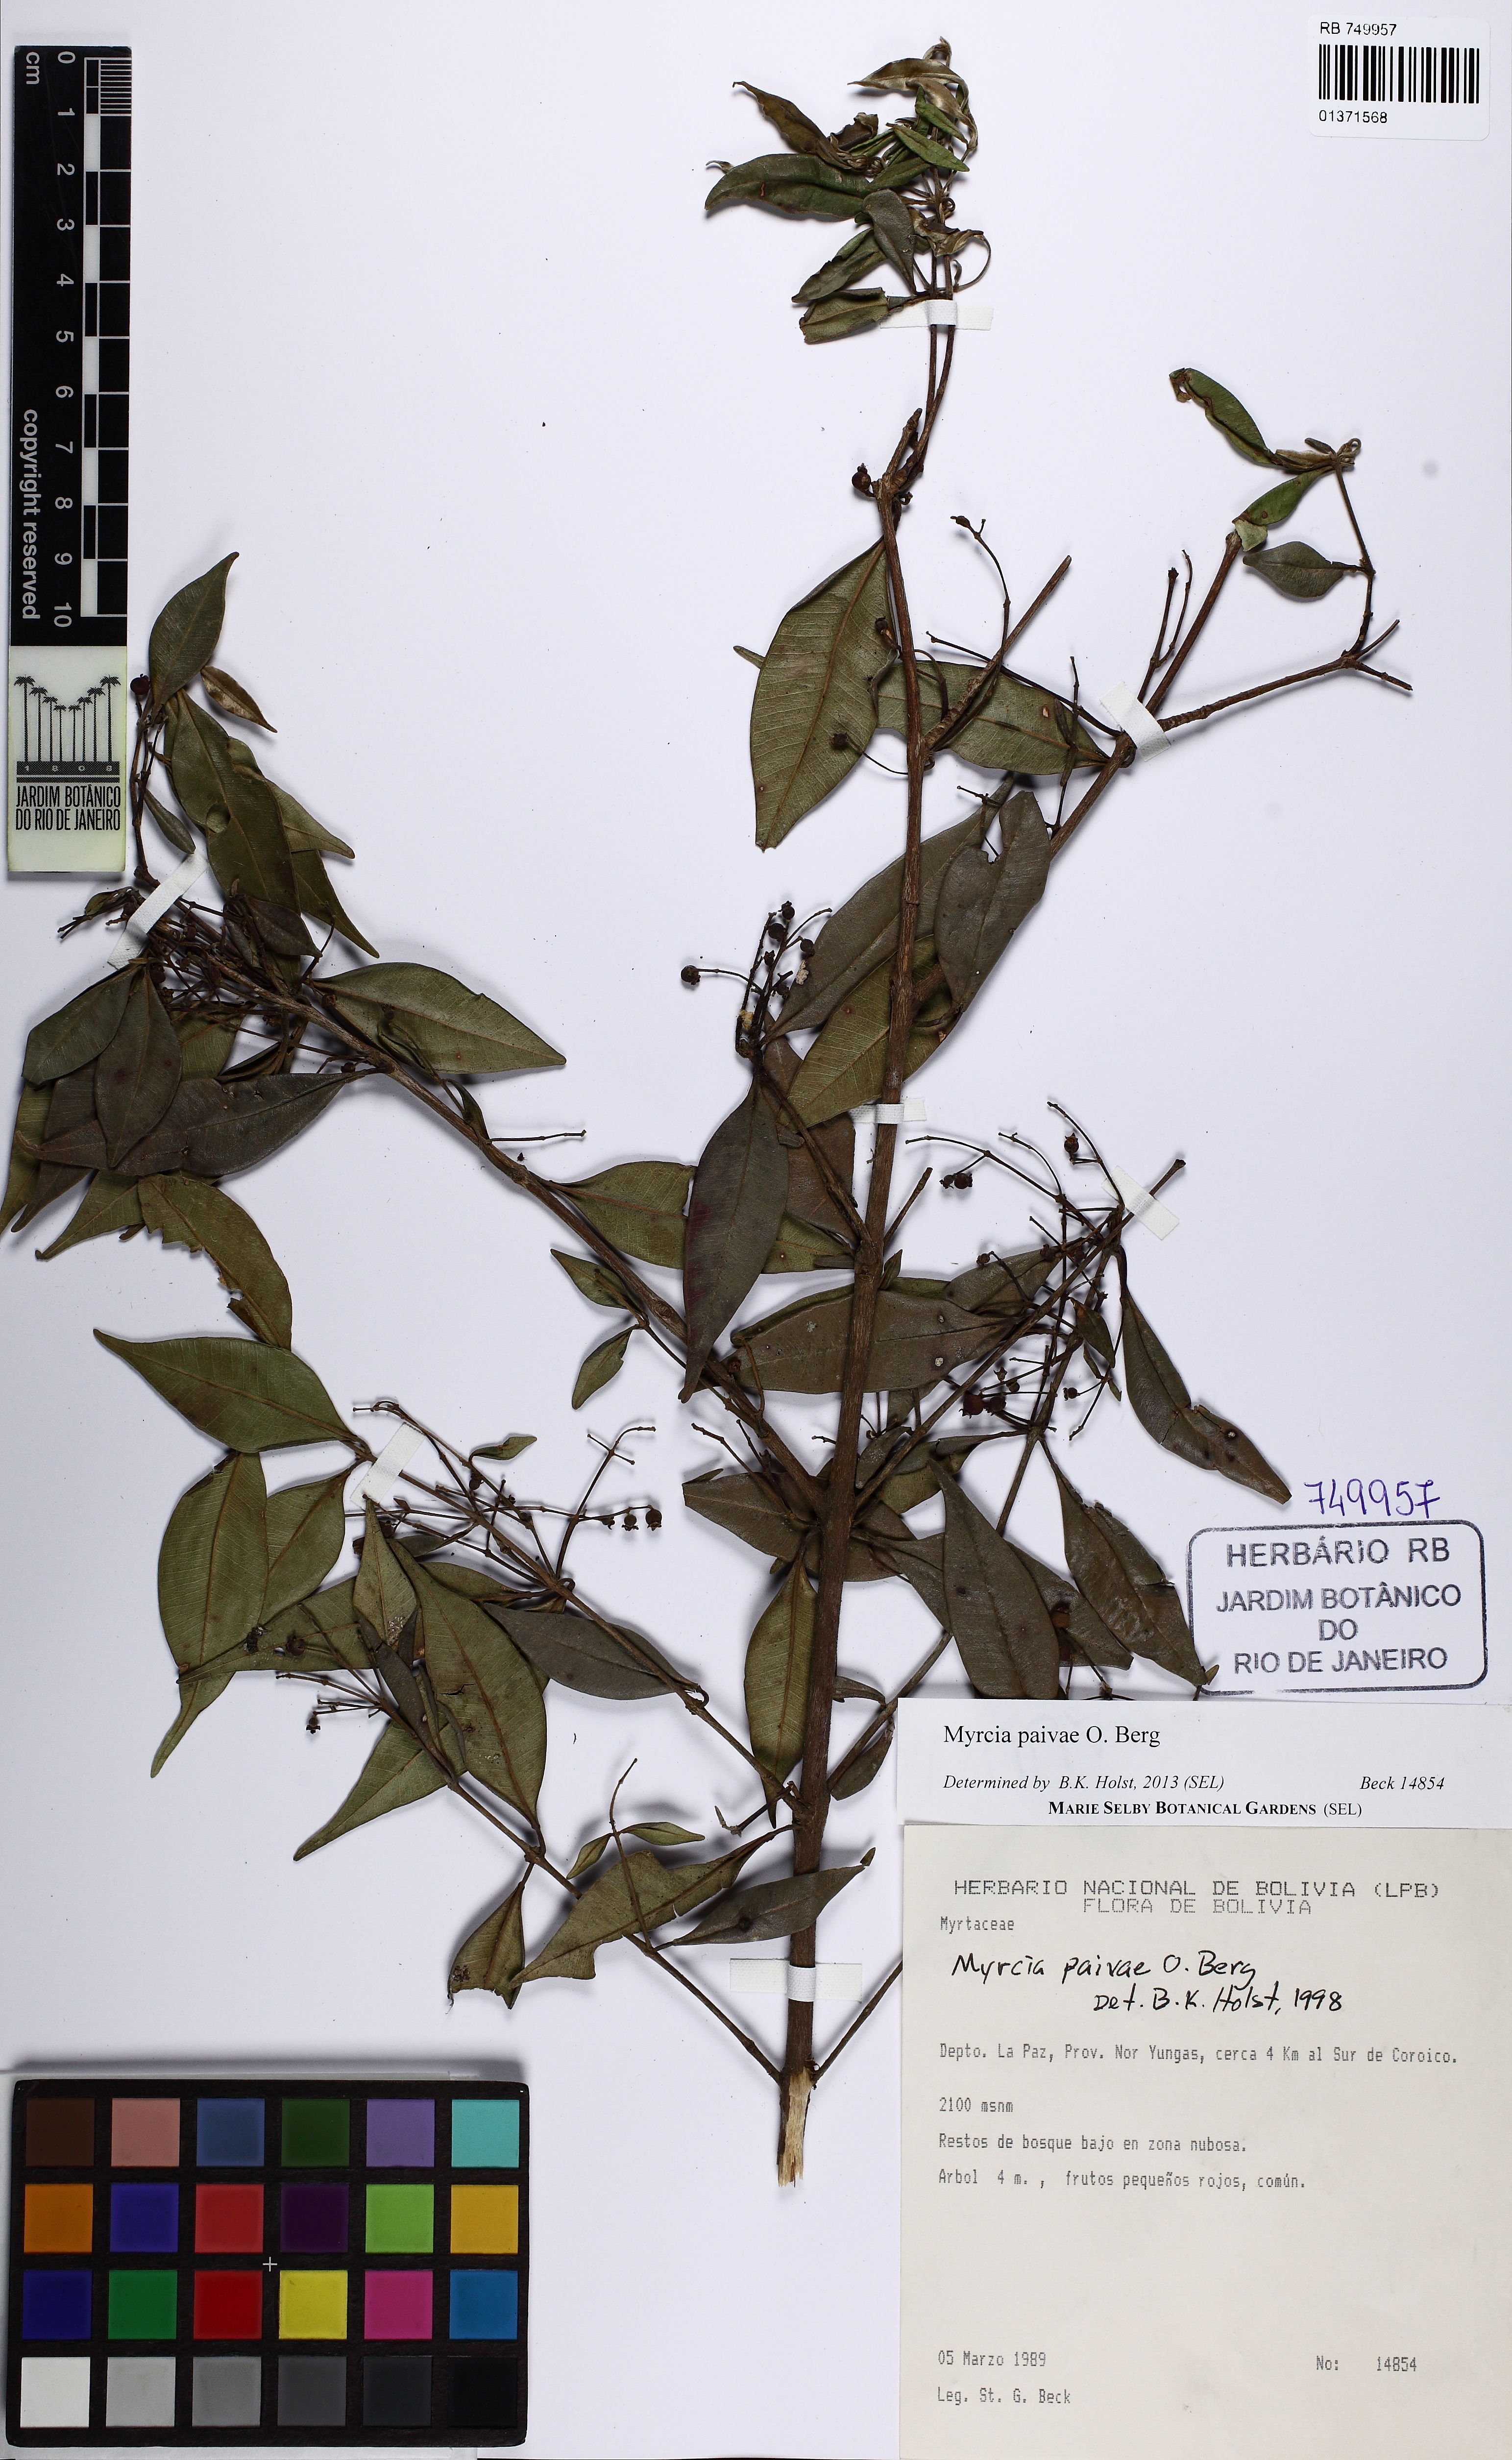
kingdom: Plantae
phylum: Tracheophyta
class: Magnoliopsida
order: Myrtales
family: Myrtaceae
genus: Myrcia
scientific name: Myrcia paivae
